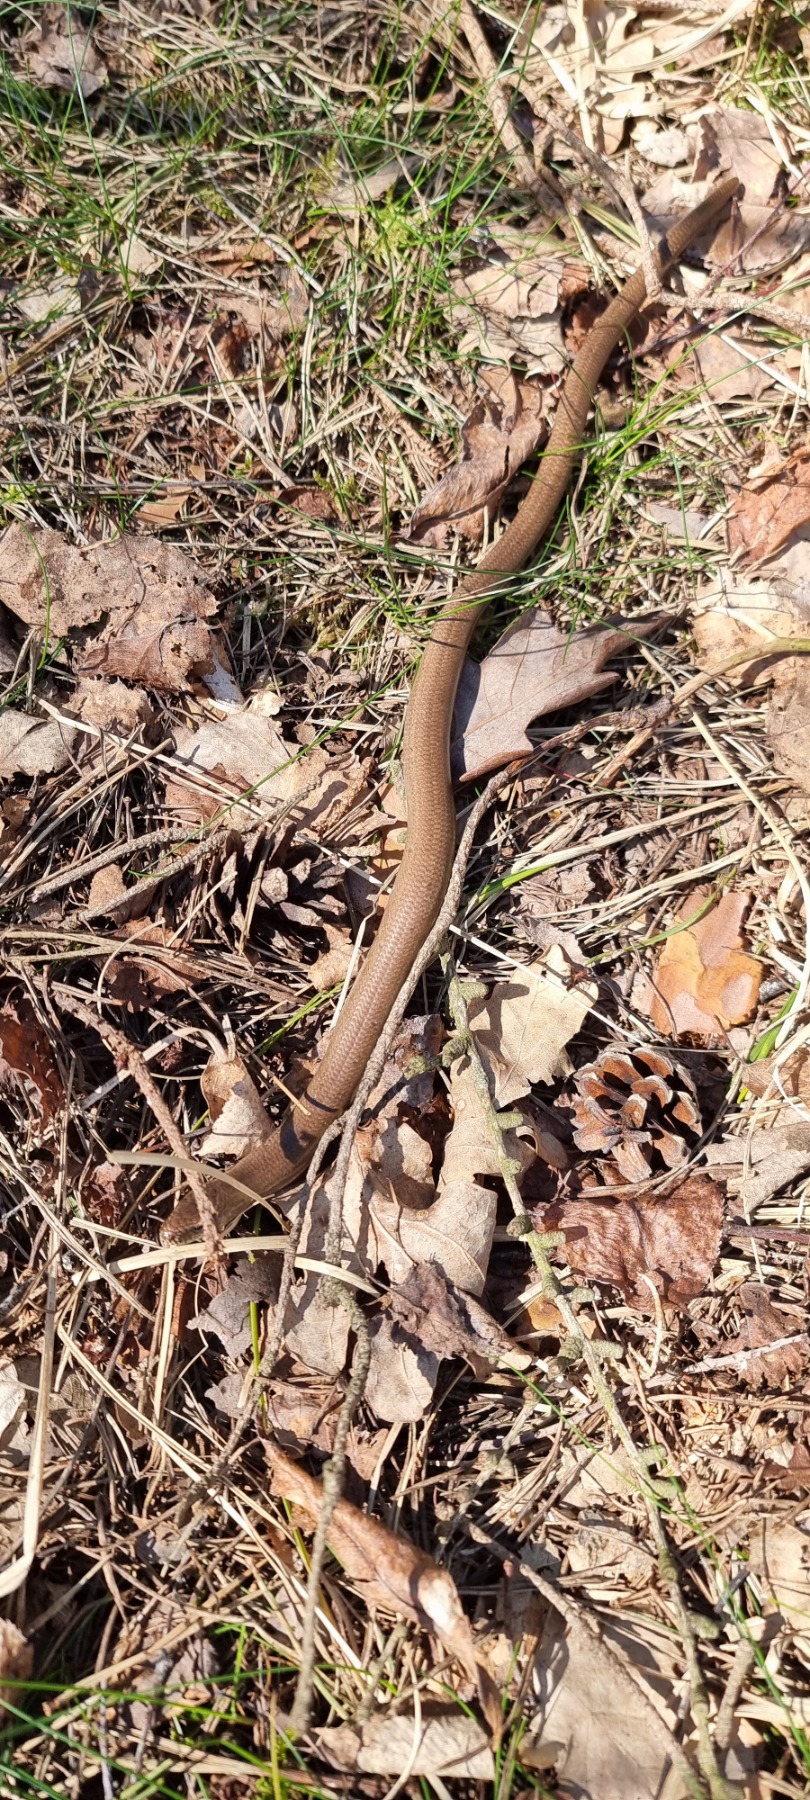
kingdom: Animalia
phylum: Chordata
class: Squamata
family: Anguidae
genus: Anguis
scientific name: Anguis fragilis
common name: Stålorm
